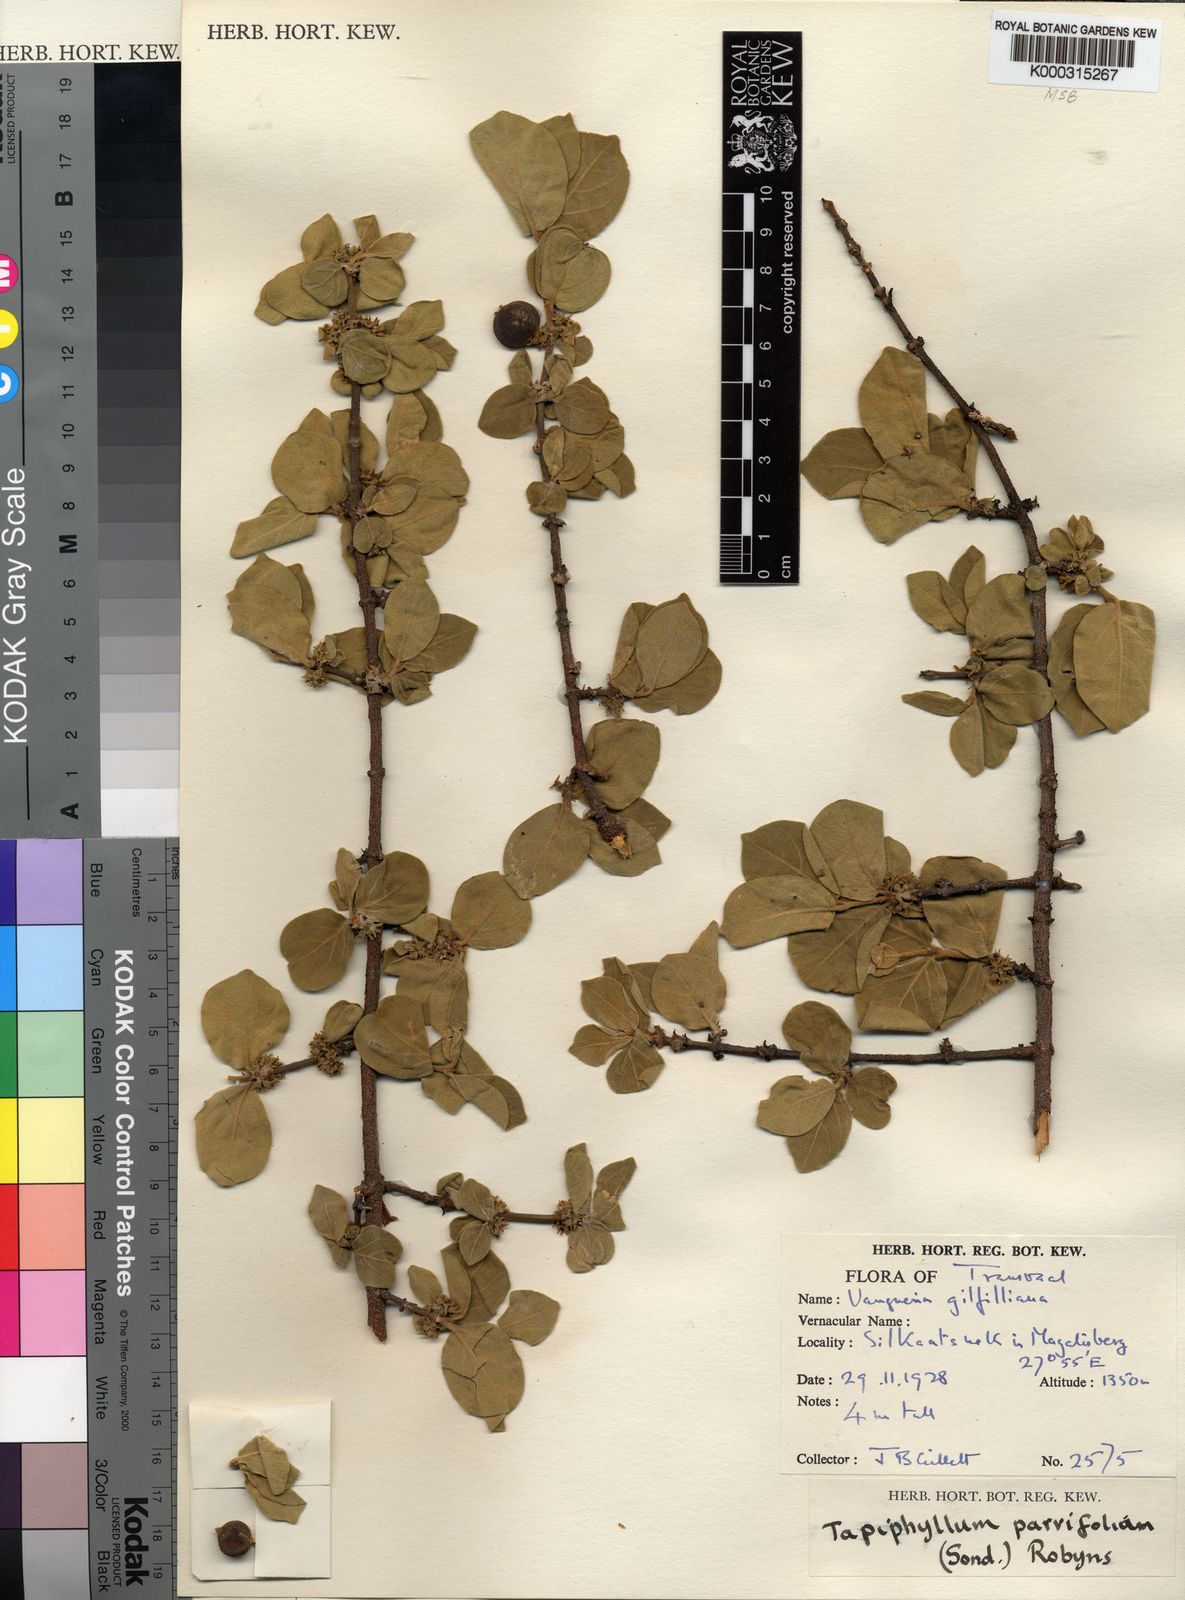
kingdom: Plantae
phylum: Tracheophyta
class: Magnoliopsida
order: Gentianales
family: Rubiaceae
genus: Vangueria
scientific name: Vangueria parvifolia
